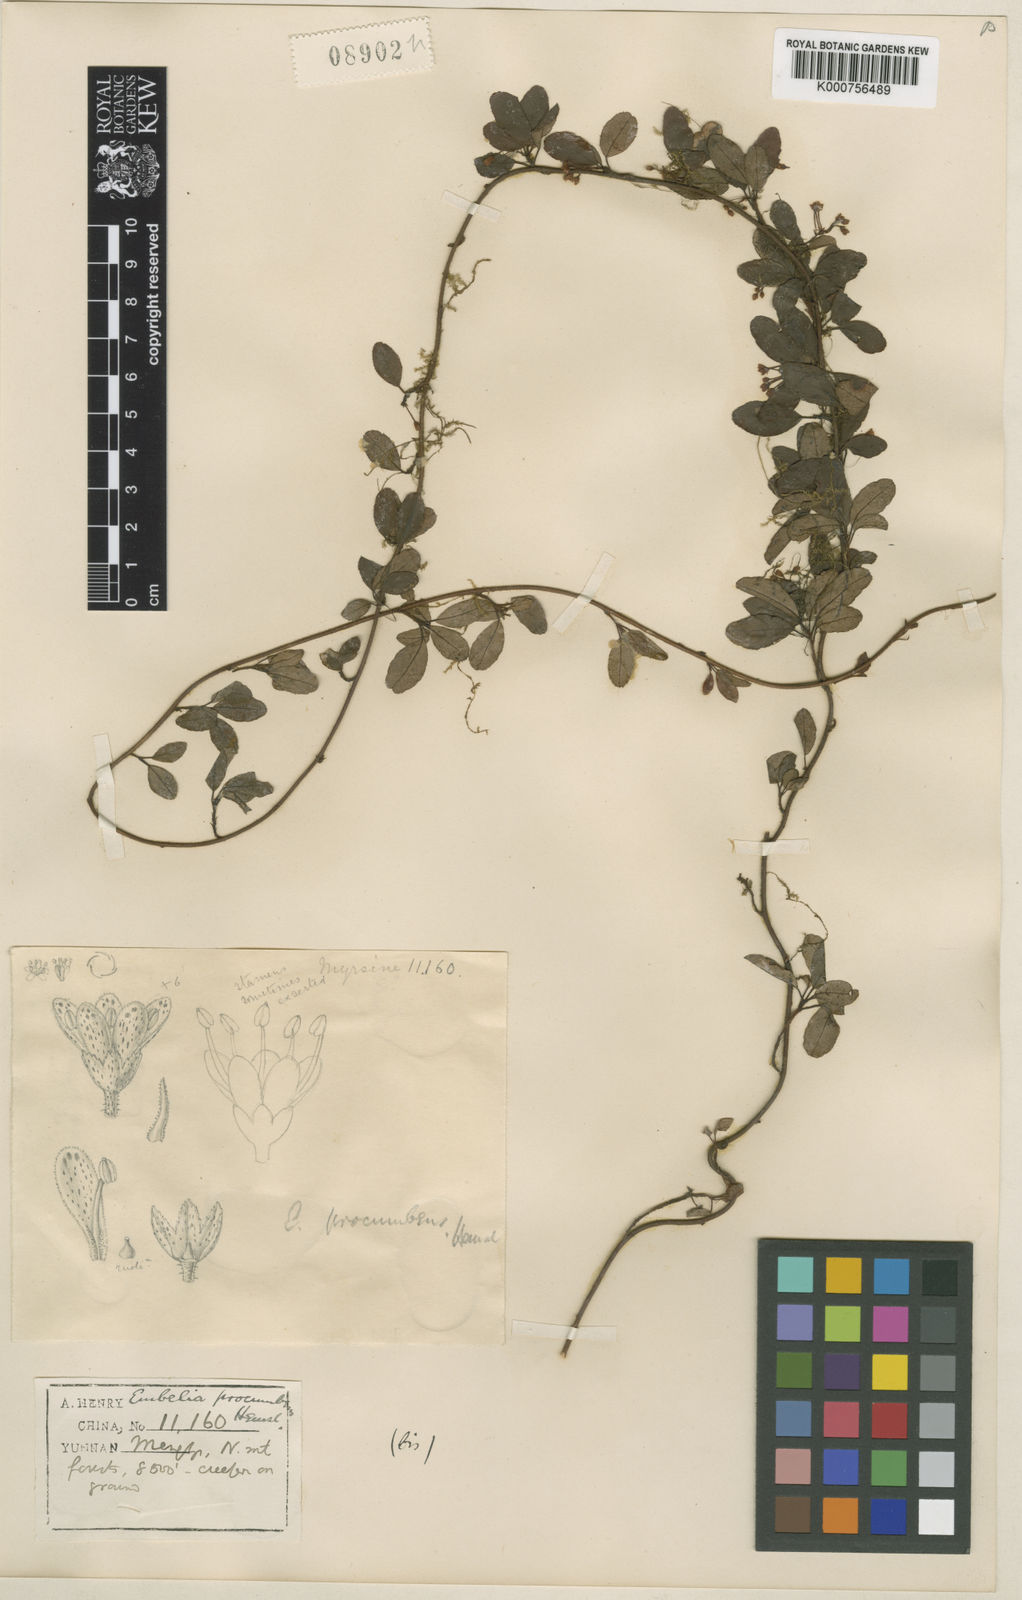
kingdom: Plantae
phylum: Tracheophyta
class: Magnoliopsida
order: Ericales
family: Primulaceae
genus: Embelia
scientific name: Embelia procumbens
